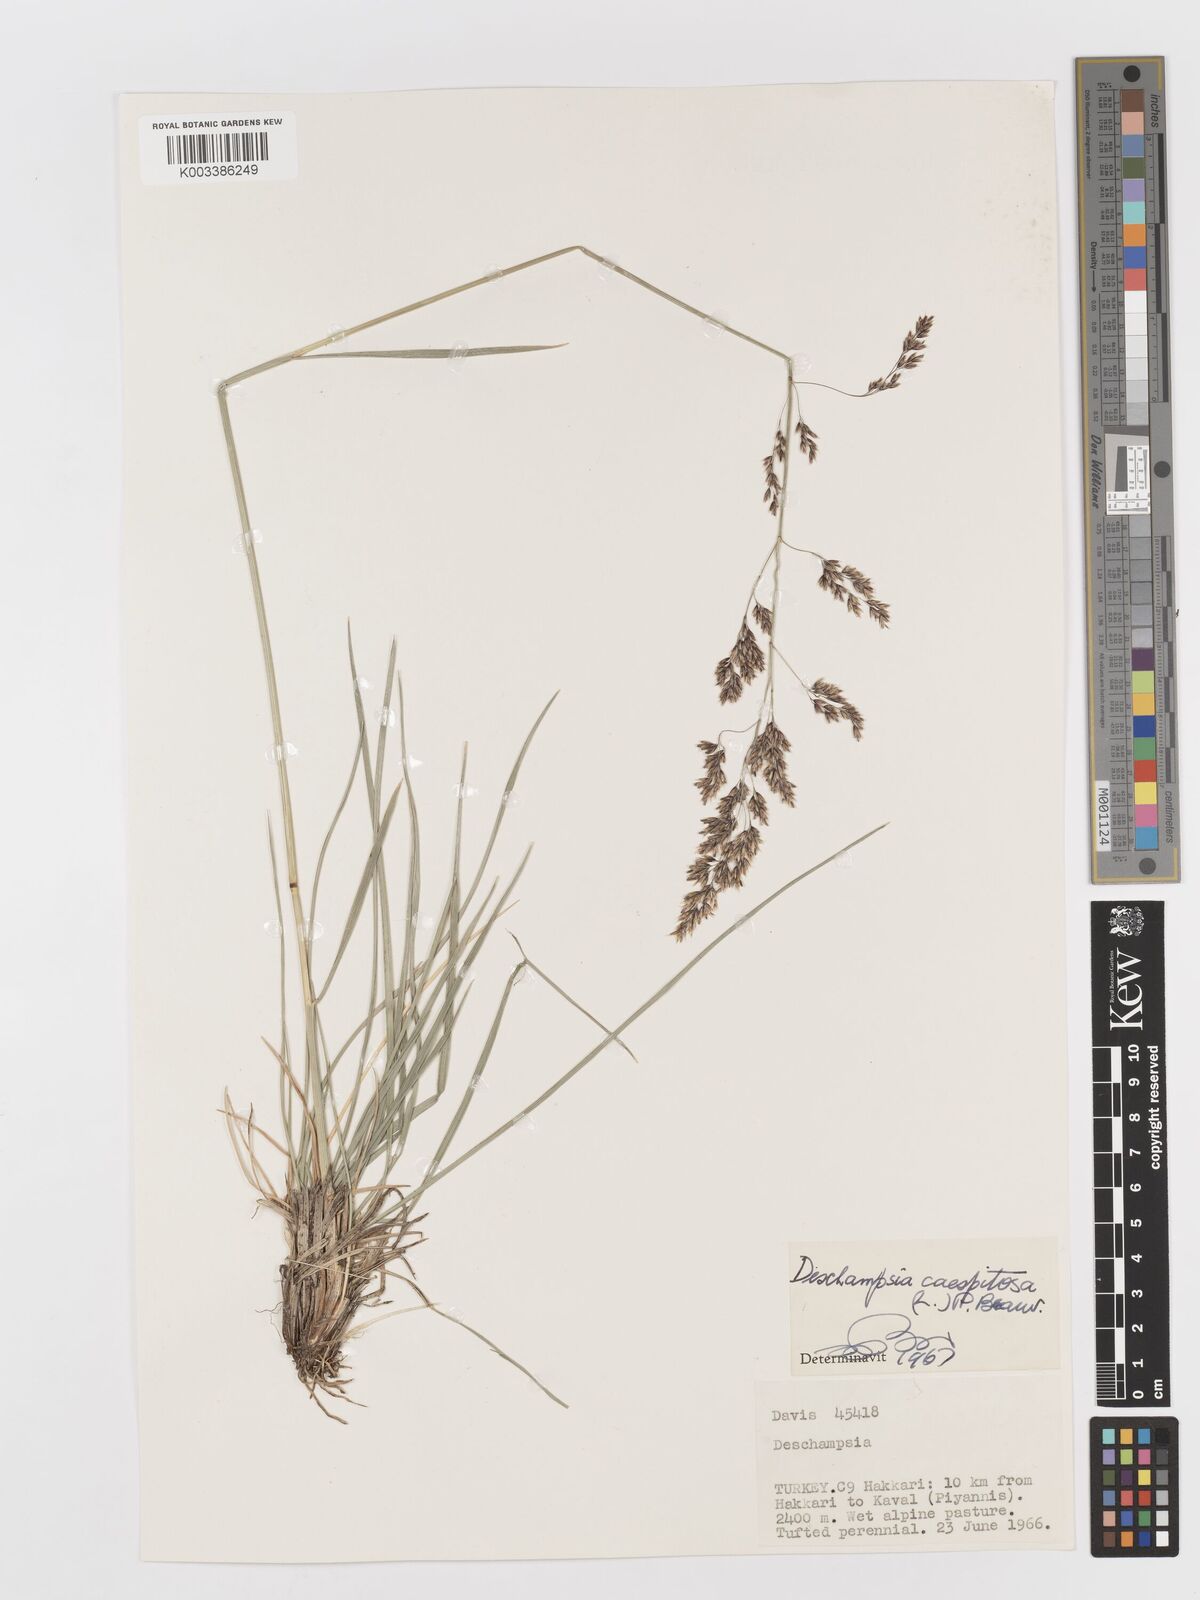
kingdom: Plantae
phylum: Tracheophyta
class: Liliopsida
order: Poales
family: Poaceae
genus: Deschampsia
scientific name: Deschampsia cespitosa
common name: Tufted hair-grass
